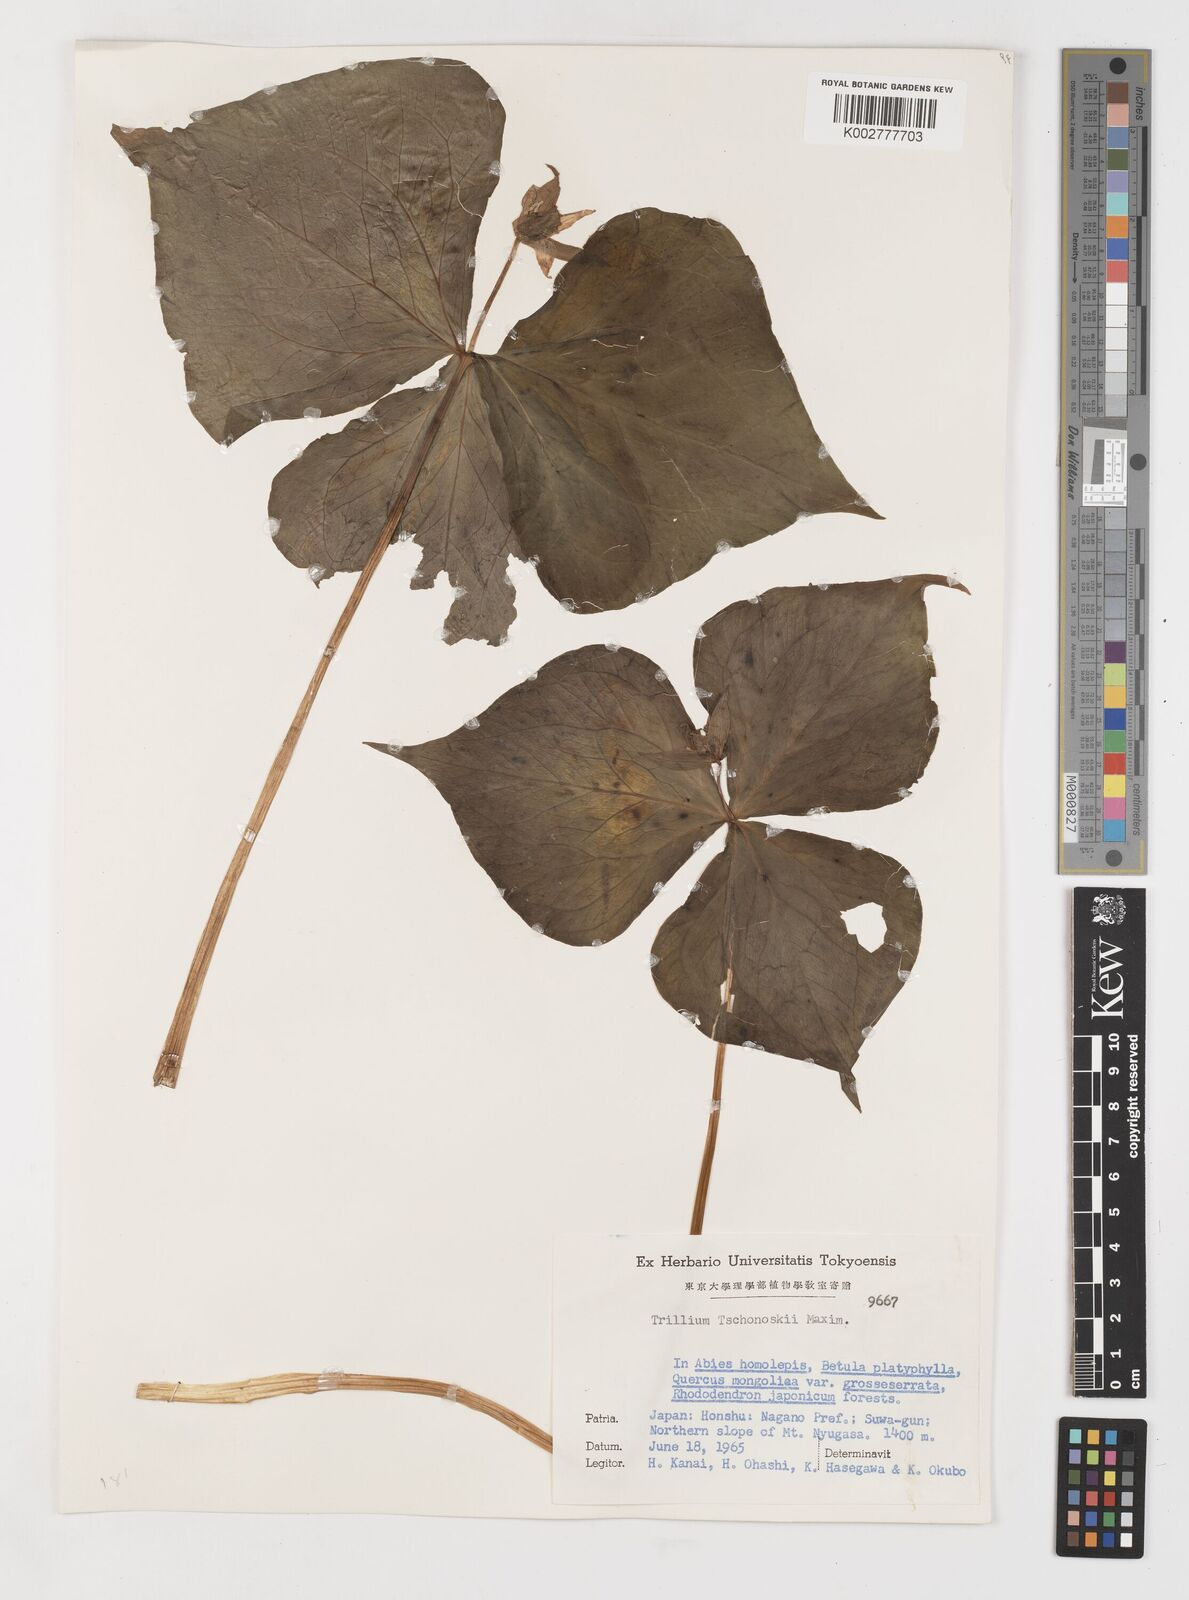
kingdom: Plantae
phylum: Tracheophyta
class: Liliopsida
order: Liliales
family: Melanthiaceae
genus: Trillium
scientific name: Trillium tschonoskii
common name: A pearl on head
